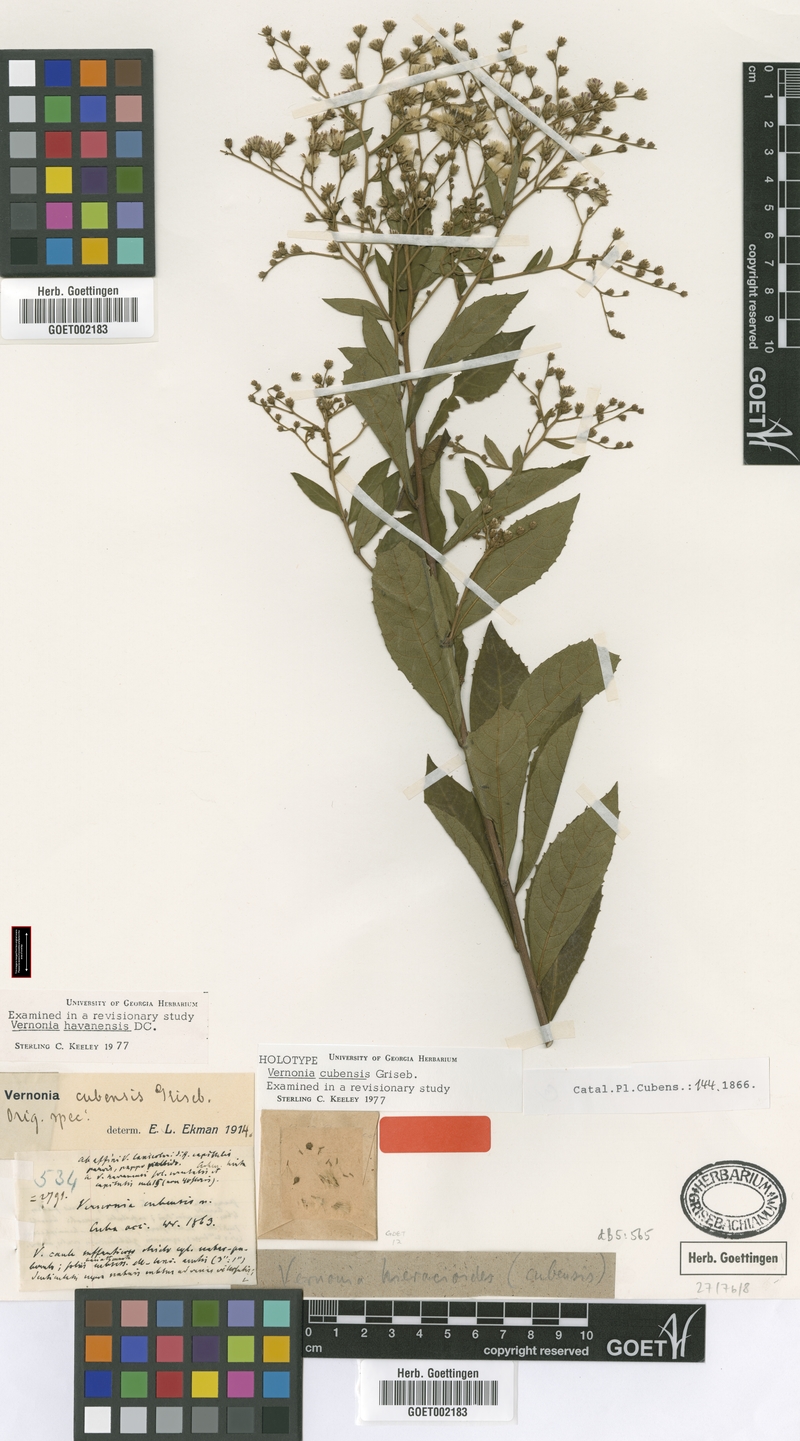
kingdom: Plantae
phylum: Tracheophyta
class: Magnoliopsida
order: Asterales
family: Asteraceae
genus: Vernonanthura
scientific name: Vernonanthura havanensis
